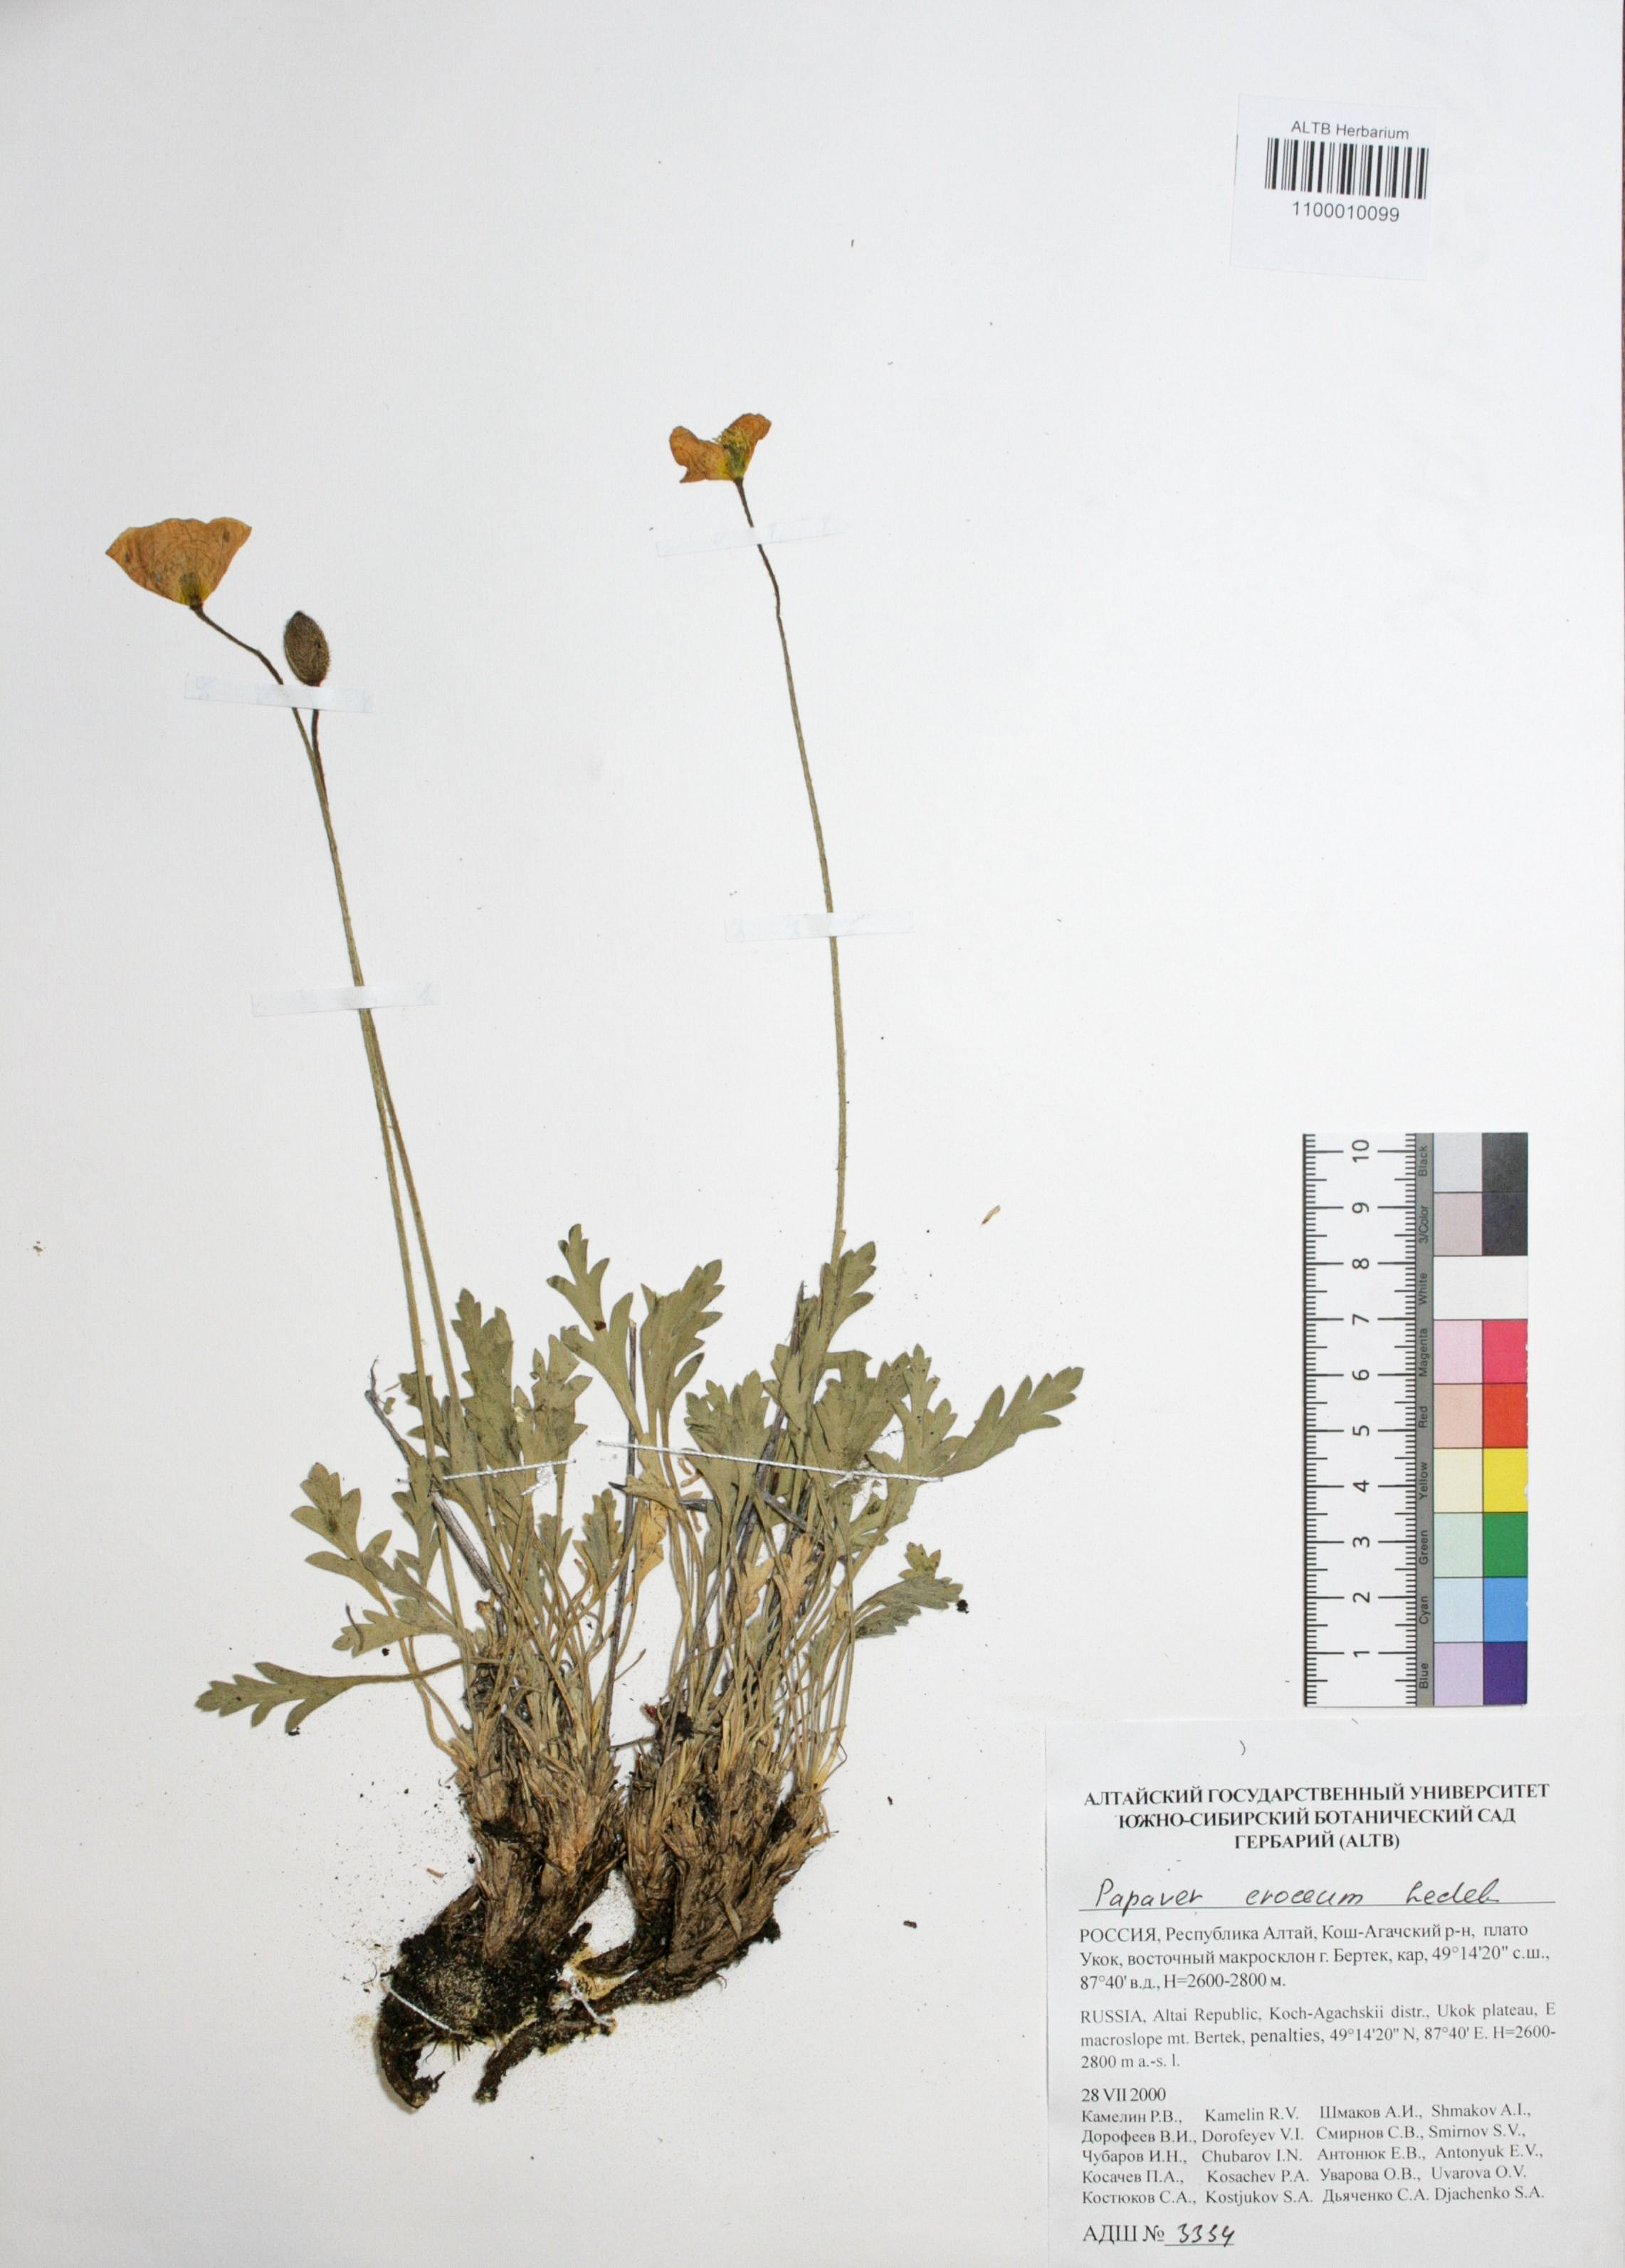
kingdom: Plantae
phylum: Tracheophyta
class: Magnoliopsida
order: Ranunculales
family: Papaveraceae
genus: Papaver
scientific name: Papaver croceum
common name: Siberian poppy
